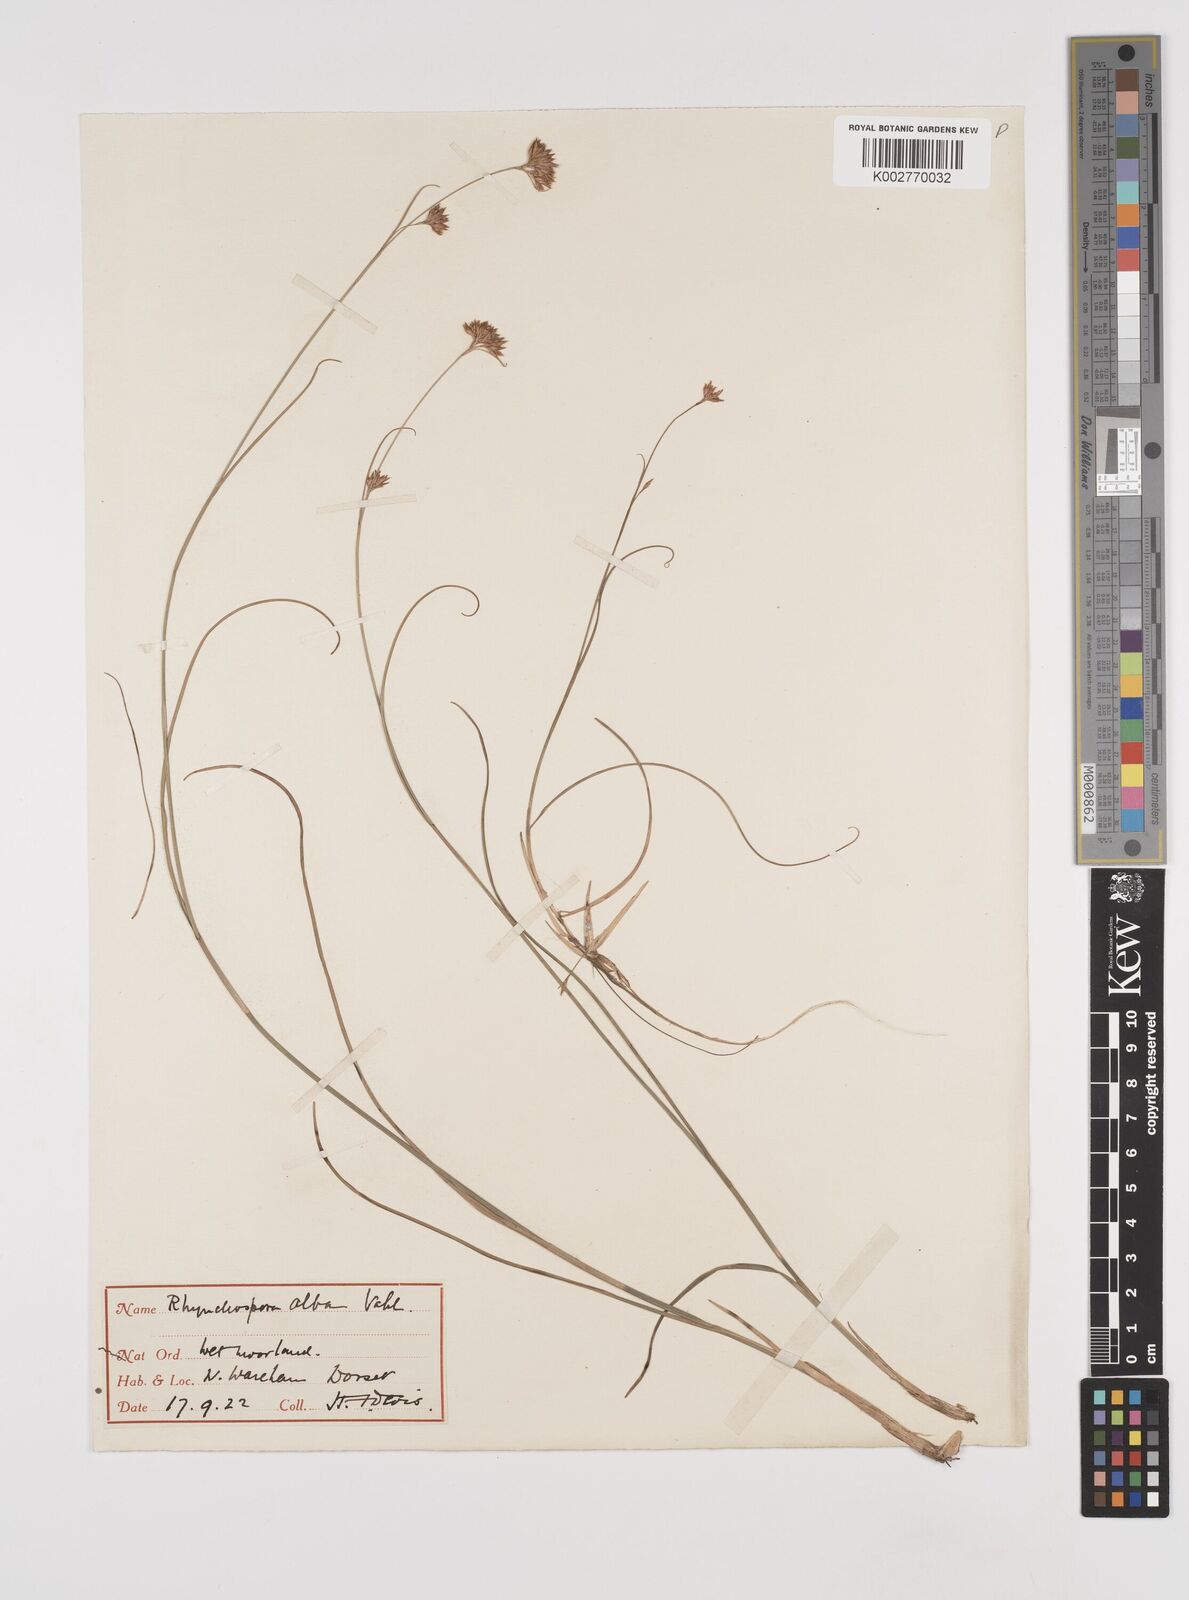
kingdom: Plantae
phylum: Tracheophyta
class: Liliopsida
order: Poales
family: Cyperaceae
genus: Rhynchospora
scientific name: Rhynchospora alba
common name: White beak-sedge
